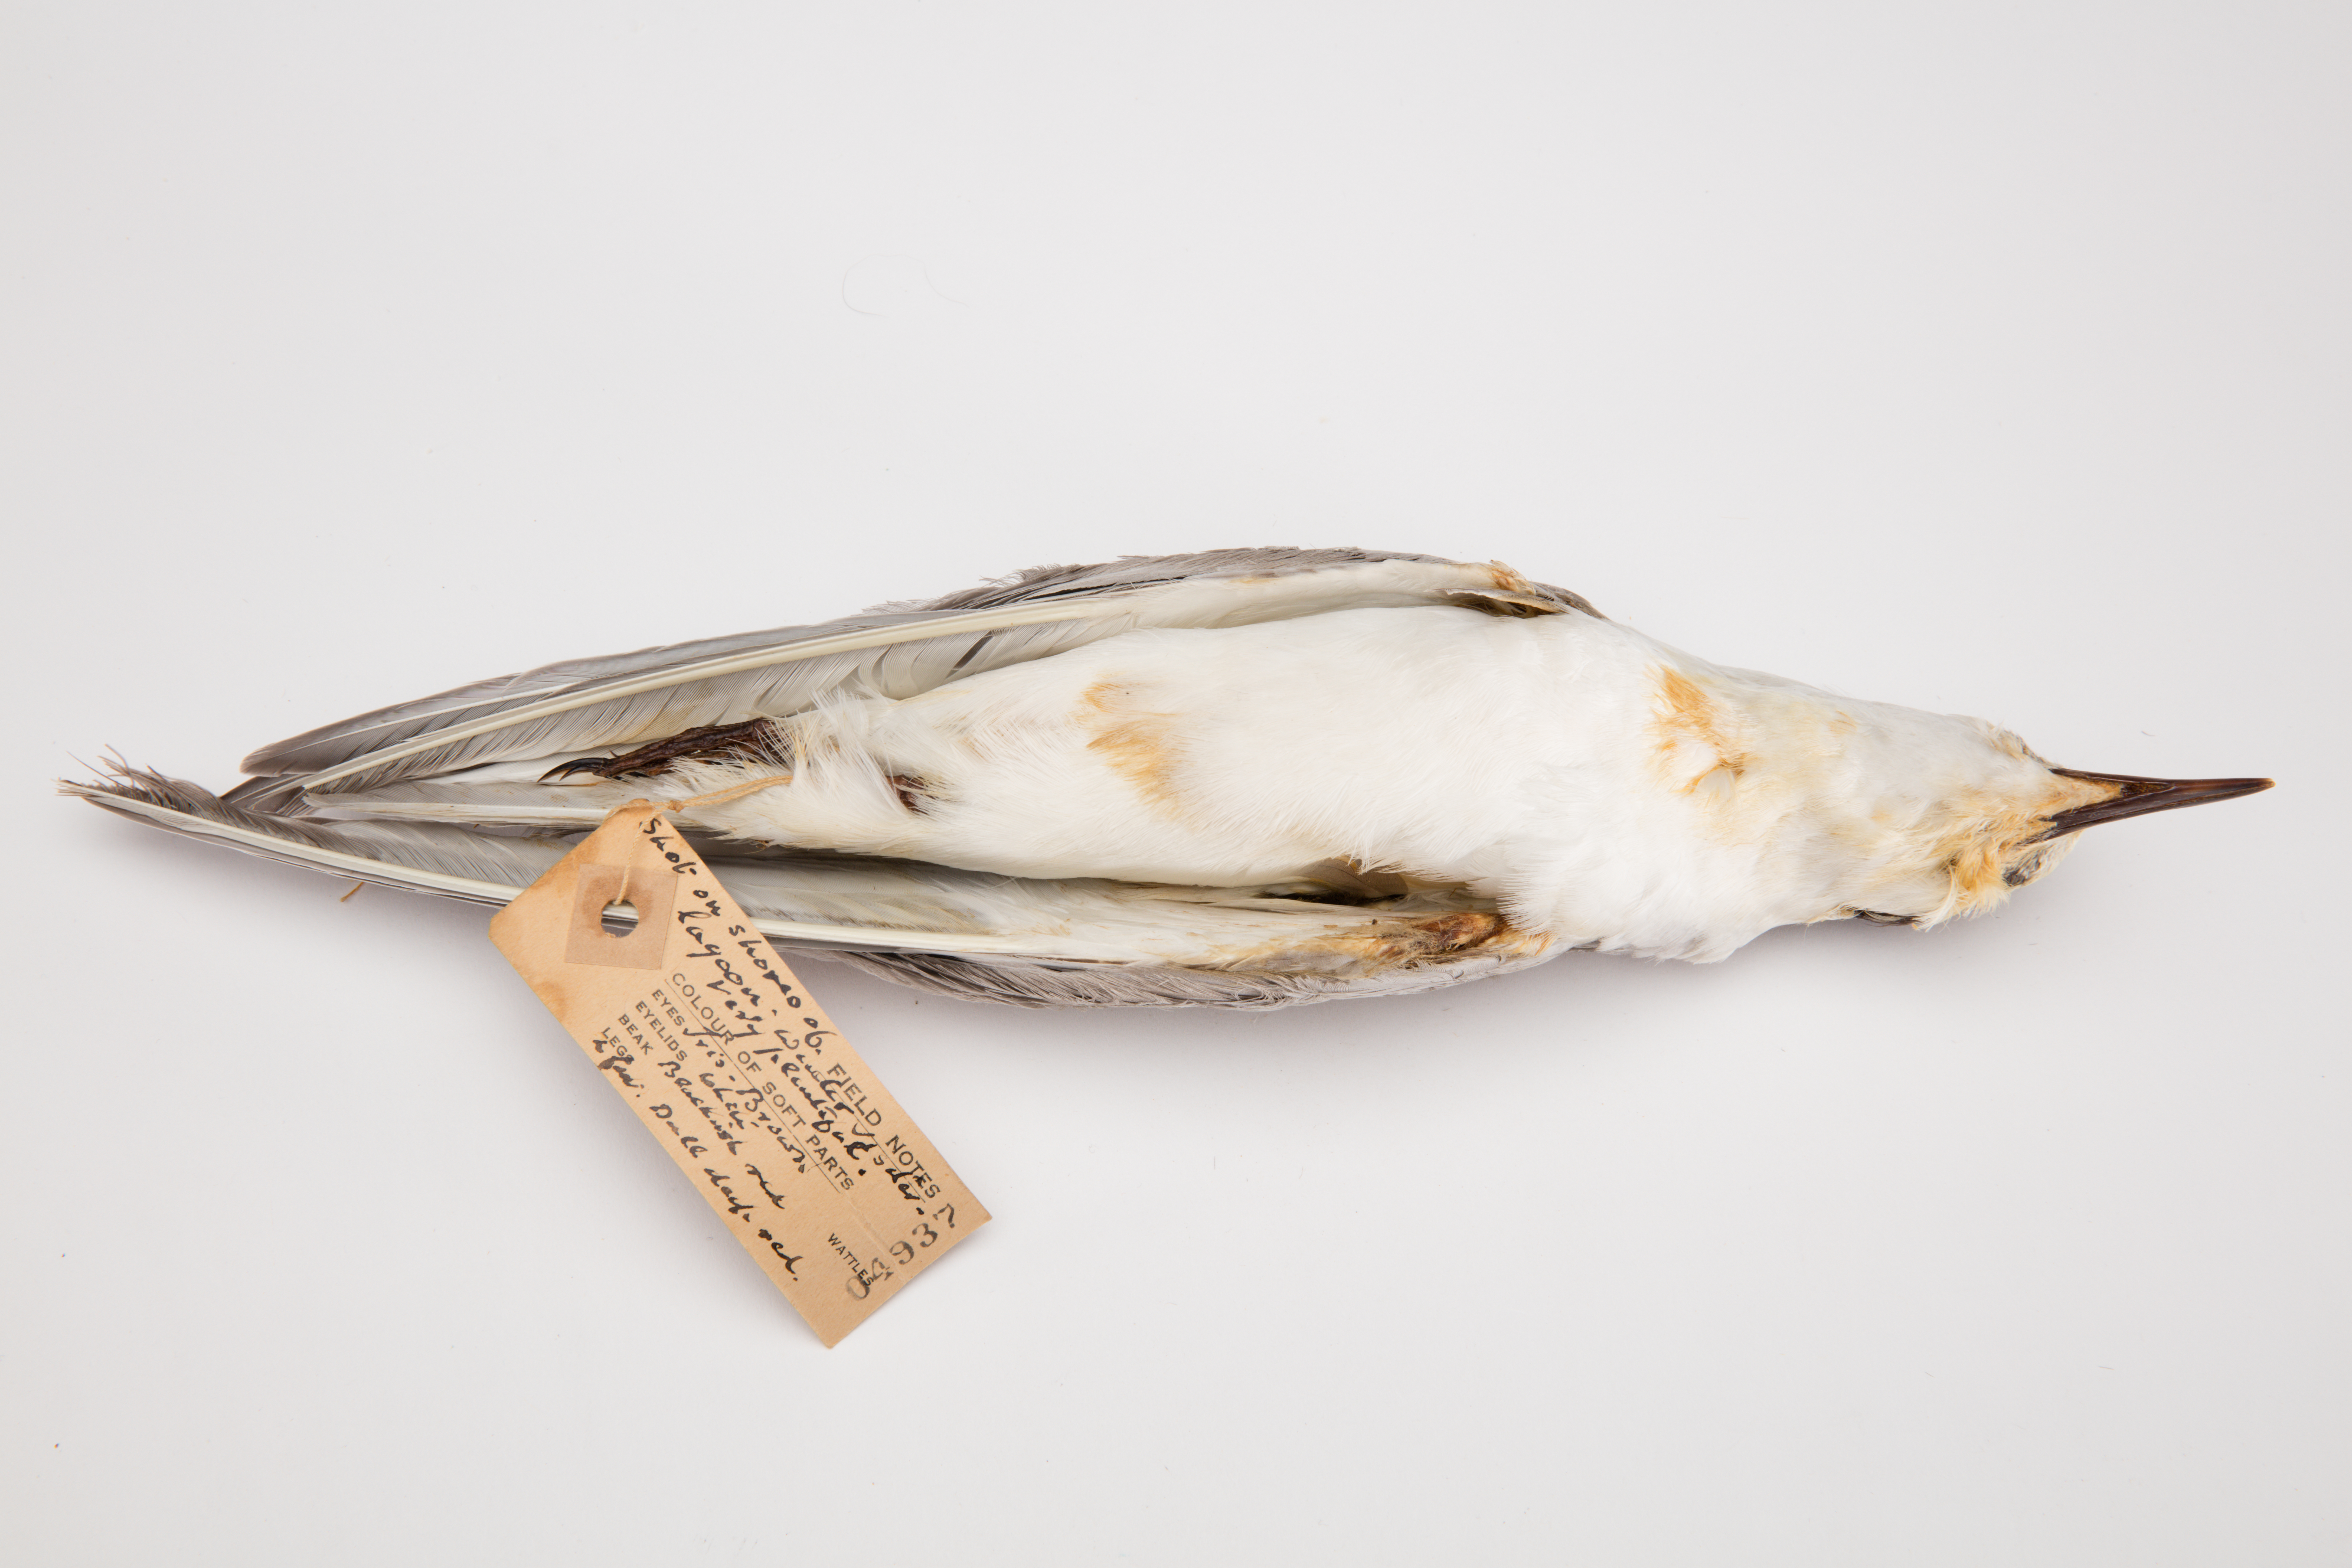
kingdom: Animalia
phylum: Chordata
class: Aves
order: Charadriiformes
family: Laridae
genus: Chlidonias
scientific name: Chlidonias hybrida
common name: Whiskered tern
